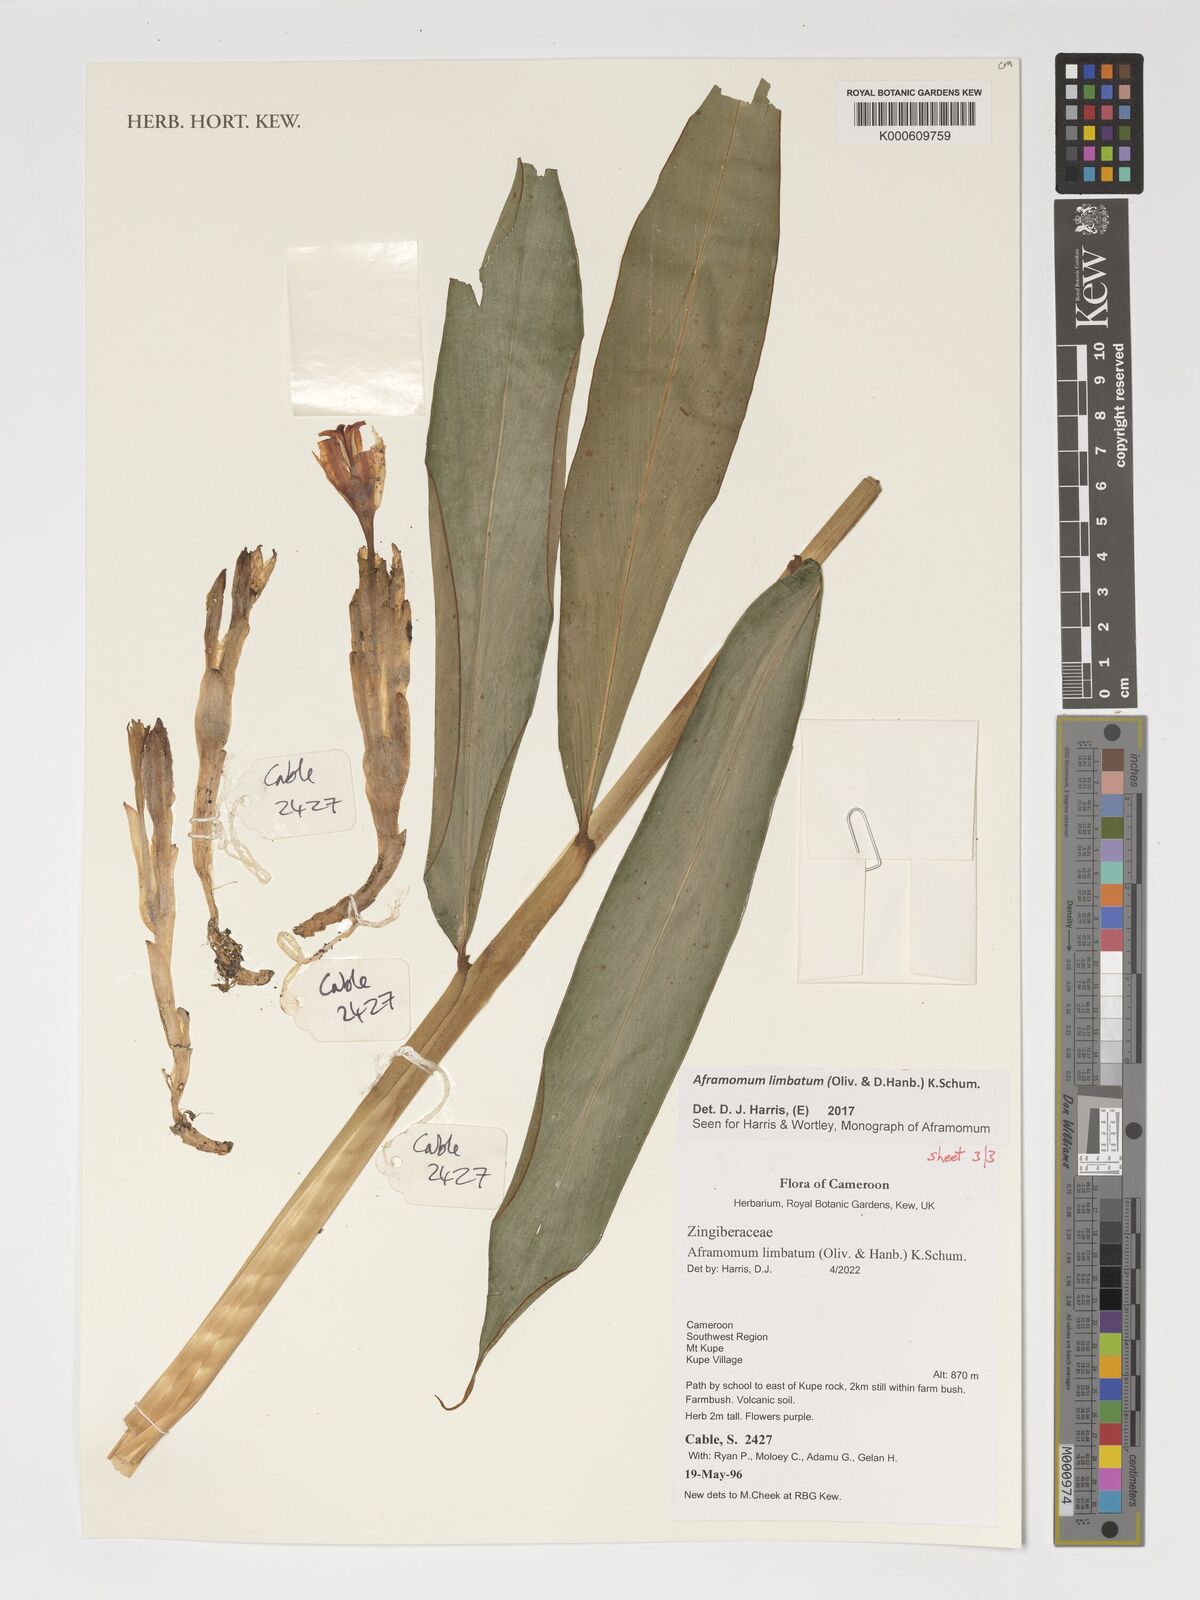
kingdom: Plantae
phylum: Tracheophyta
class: Liliopsida
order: Zingiberales
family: Zingiberaceae
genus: Aframomum
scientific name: Aframomum limbatum
